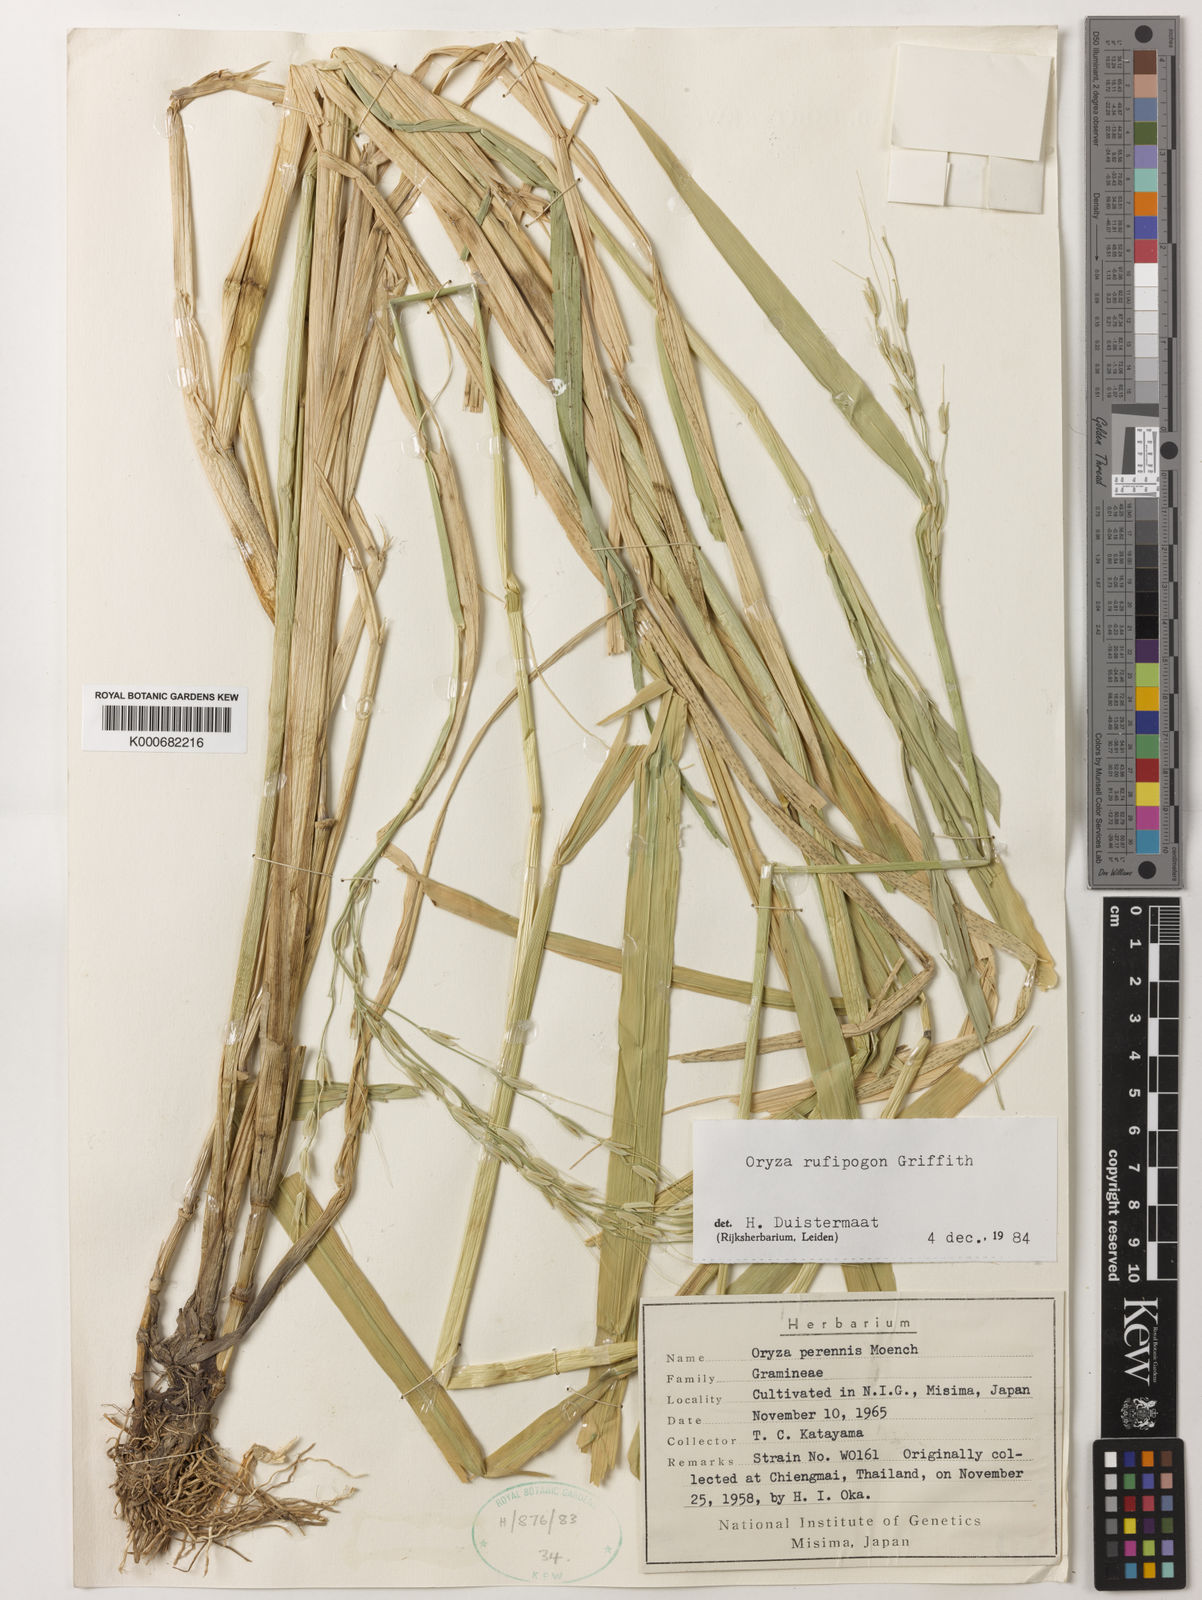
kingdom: Plantae
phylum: Tracheophyta
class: Liliopsida
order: Poales
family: Poaceae
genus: Oryza
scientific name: Oryza rufipogon
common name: Red rice
